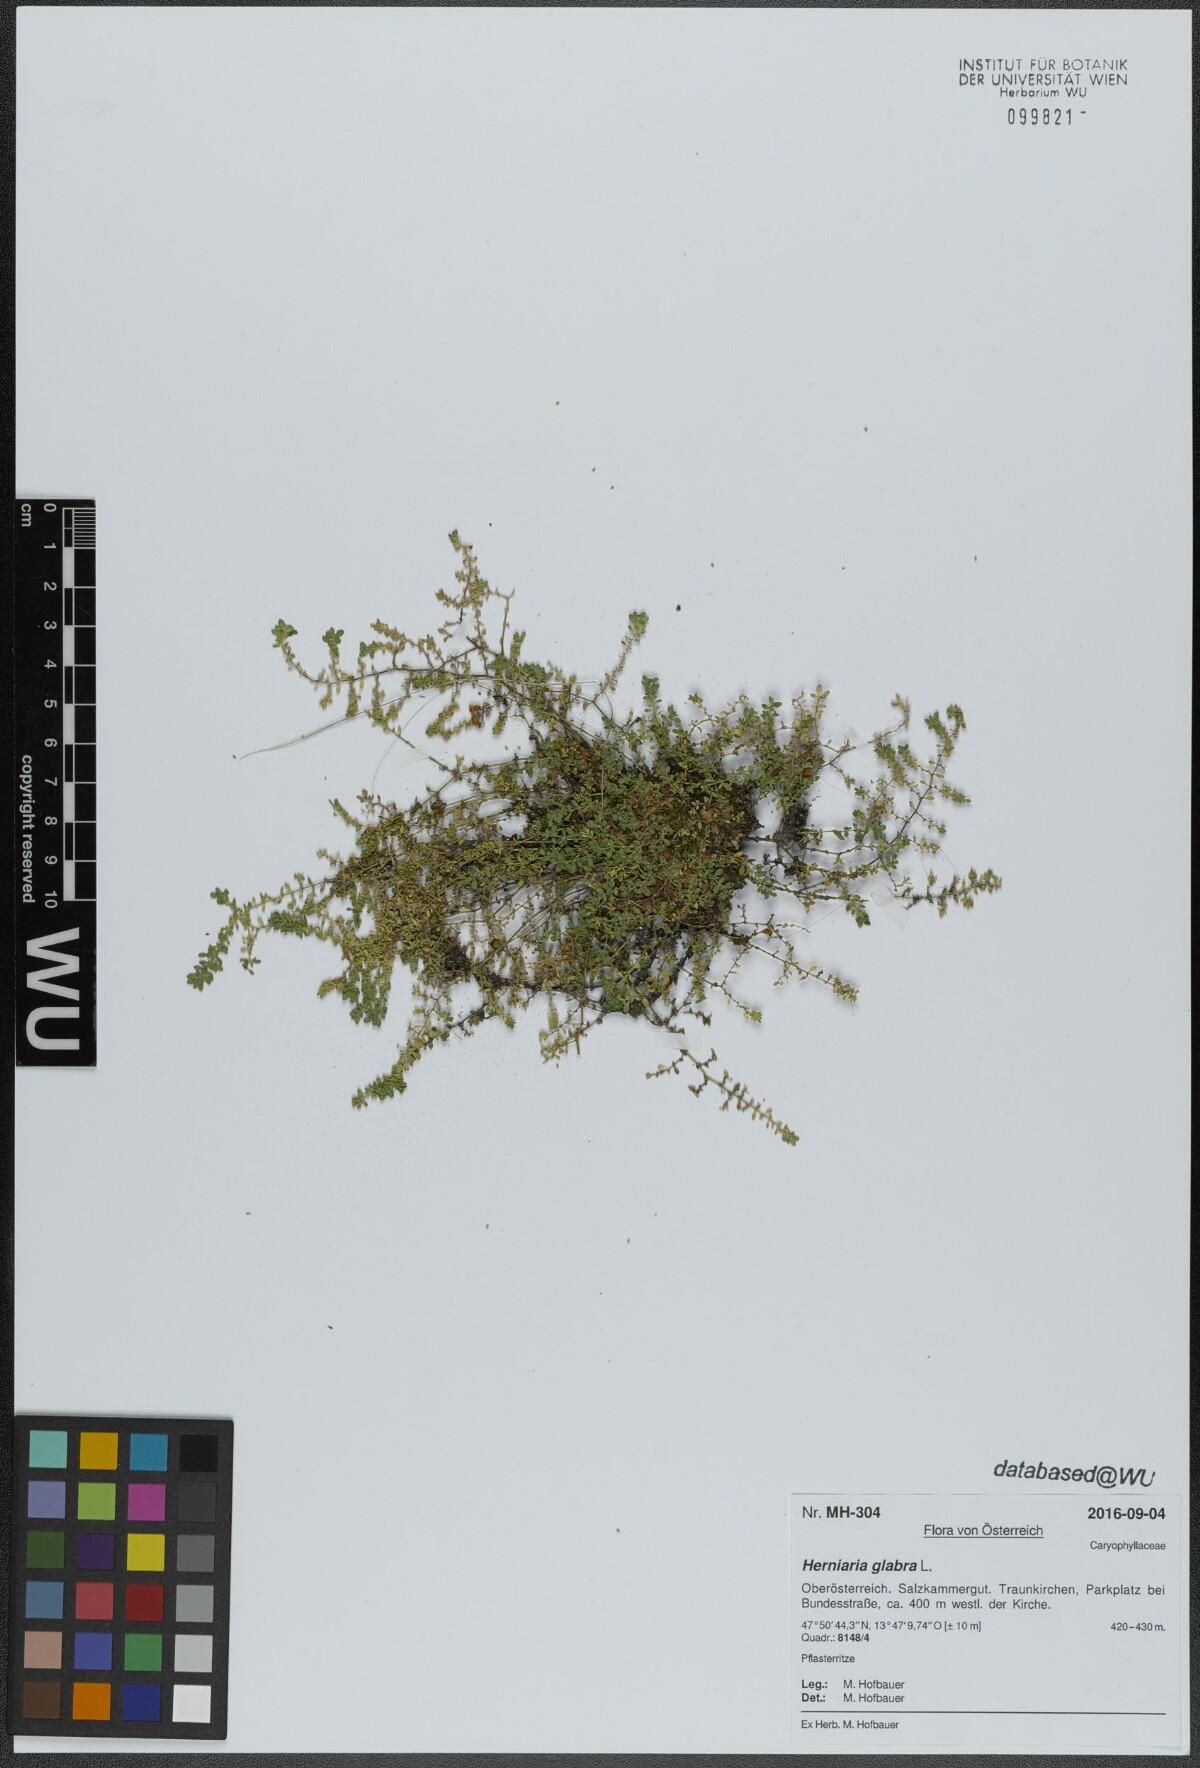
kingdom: Plantae
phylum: Tracheophyta
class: Magnoliopsida
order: Caryophyllales
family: Caryophyllaceae
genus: Herniaria
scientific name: Herniaria glabra
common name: Smooth rupturewort
